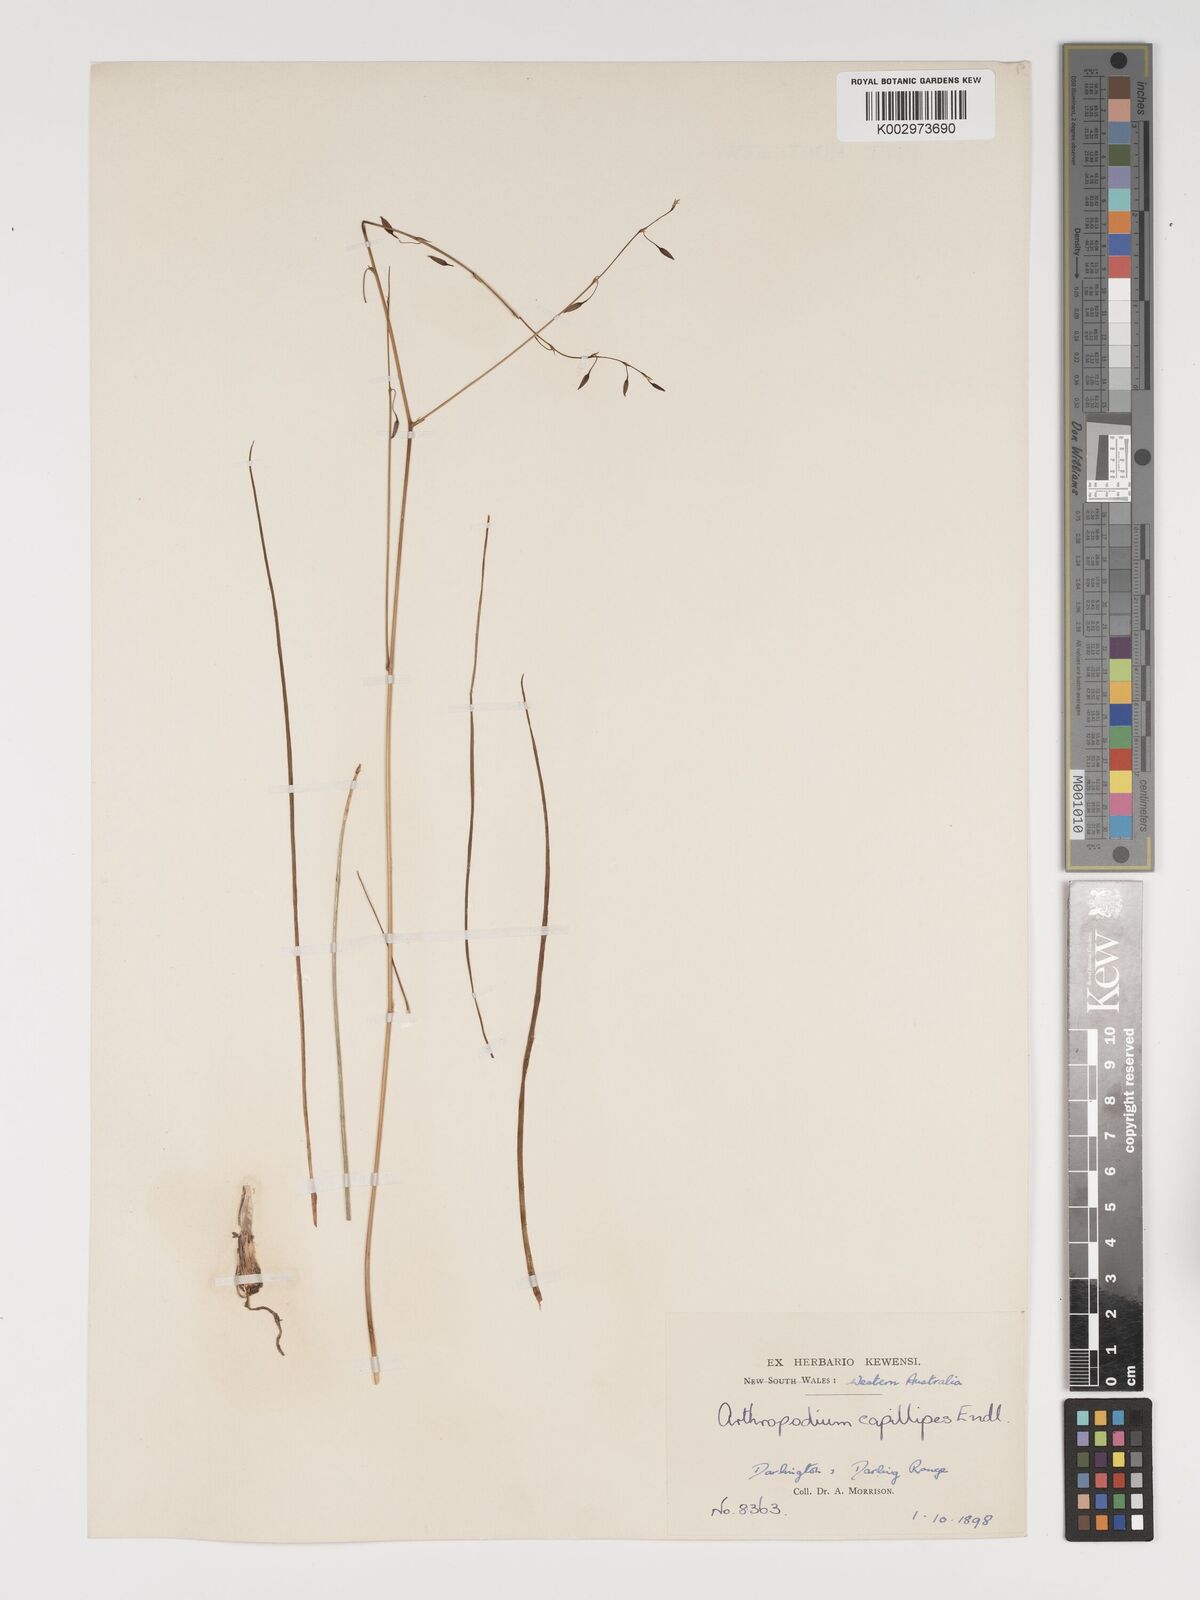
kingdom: Plantae
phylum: Tracheophyta
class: Liliopsida
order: Asparagales
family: Asparagaceae
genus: Dichopogon
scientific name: Dichopogon preissii
